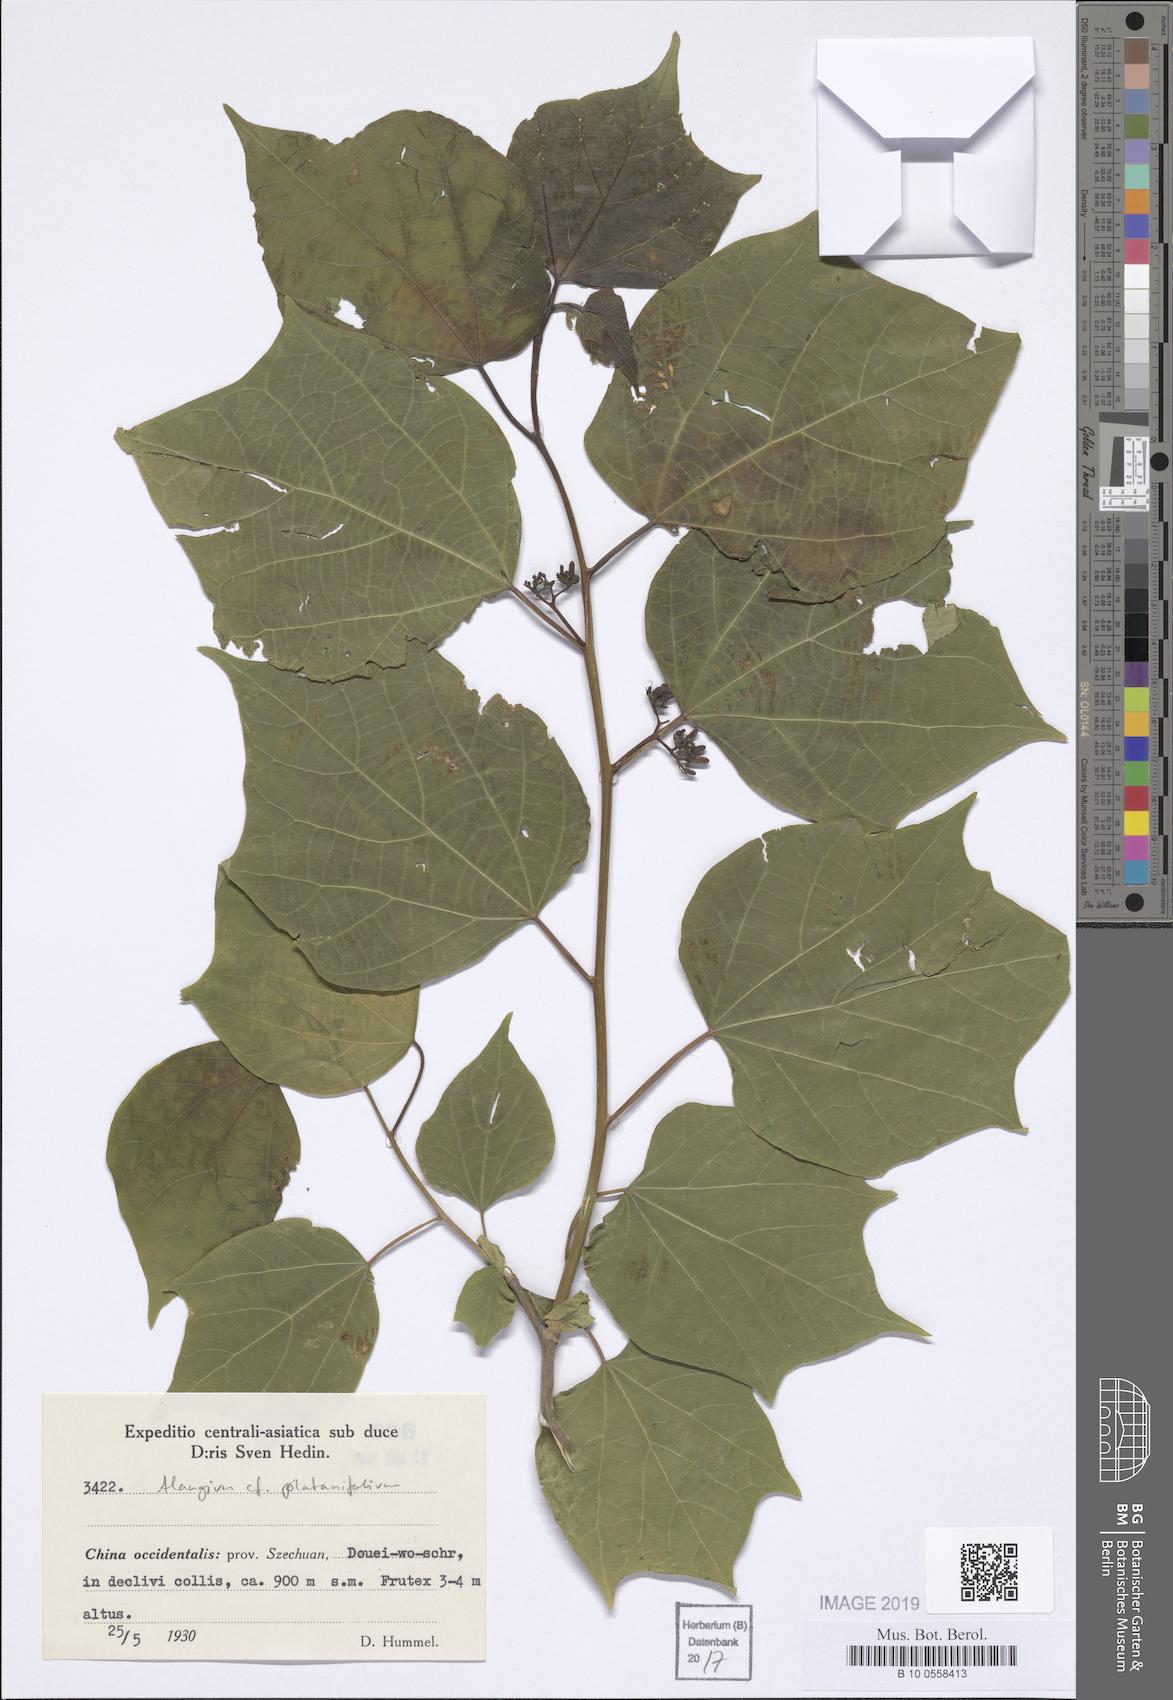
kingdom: Plantae
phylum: Tracheophyta
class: Magnoliopsida
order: Cornales
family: Cornaceae
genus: Alangium
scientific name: Alangium platanifolium
